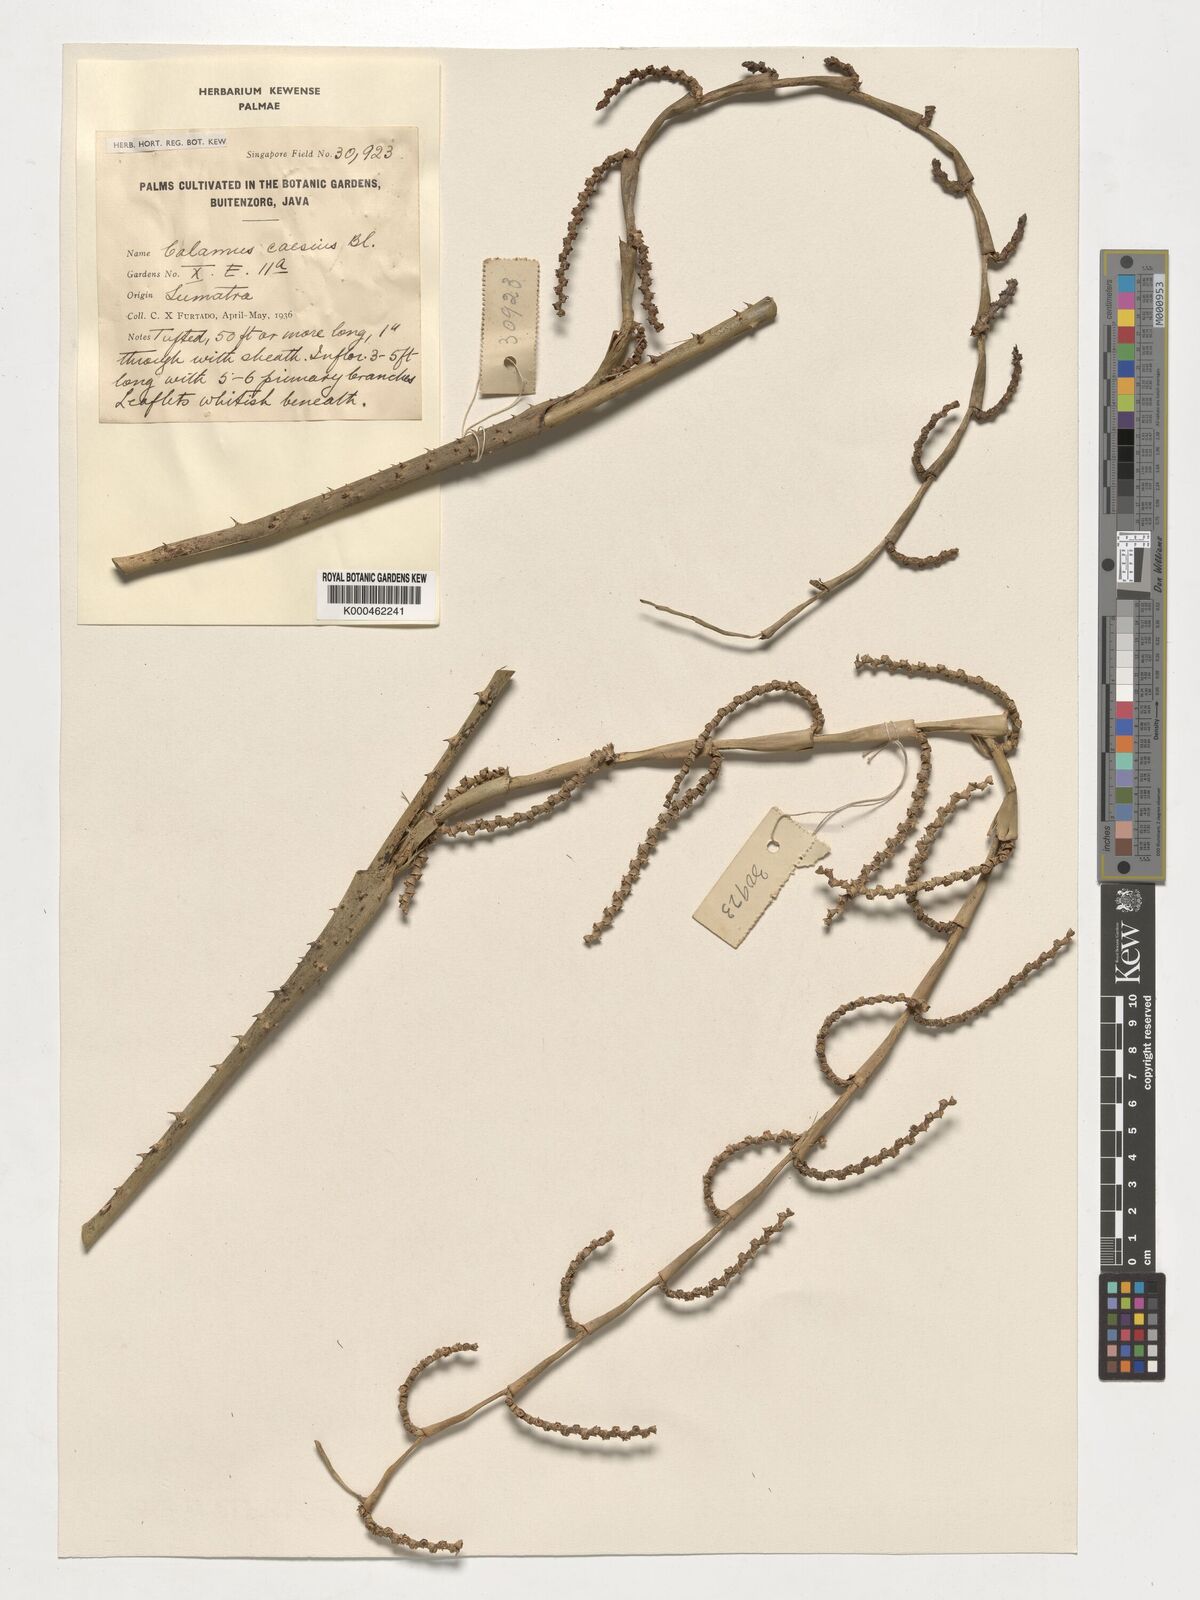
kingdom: Plantae
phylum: Tracheophyta
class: Liliopsida
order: Arecales
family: Arecaceae
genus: Calamus
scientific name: Calamus caesius
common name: Rattan palm
